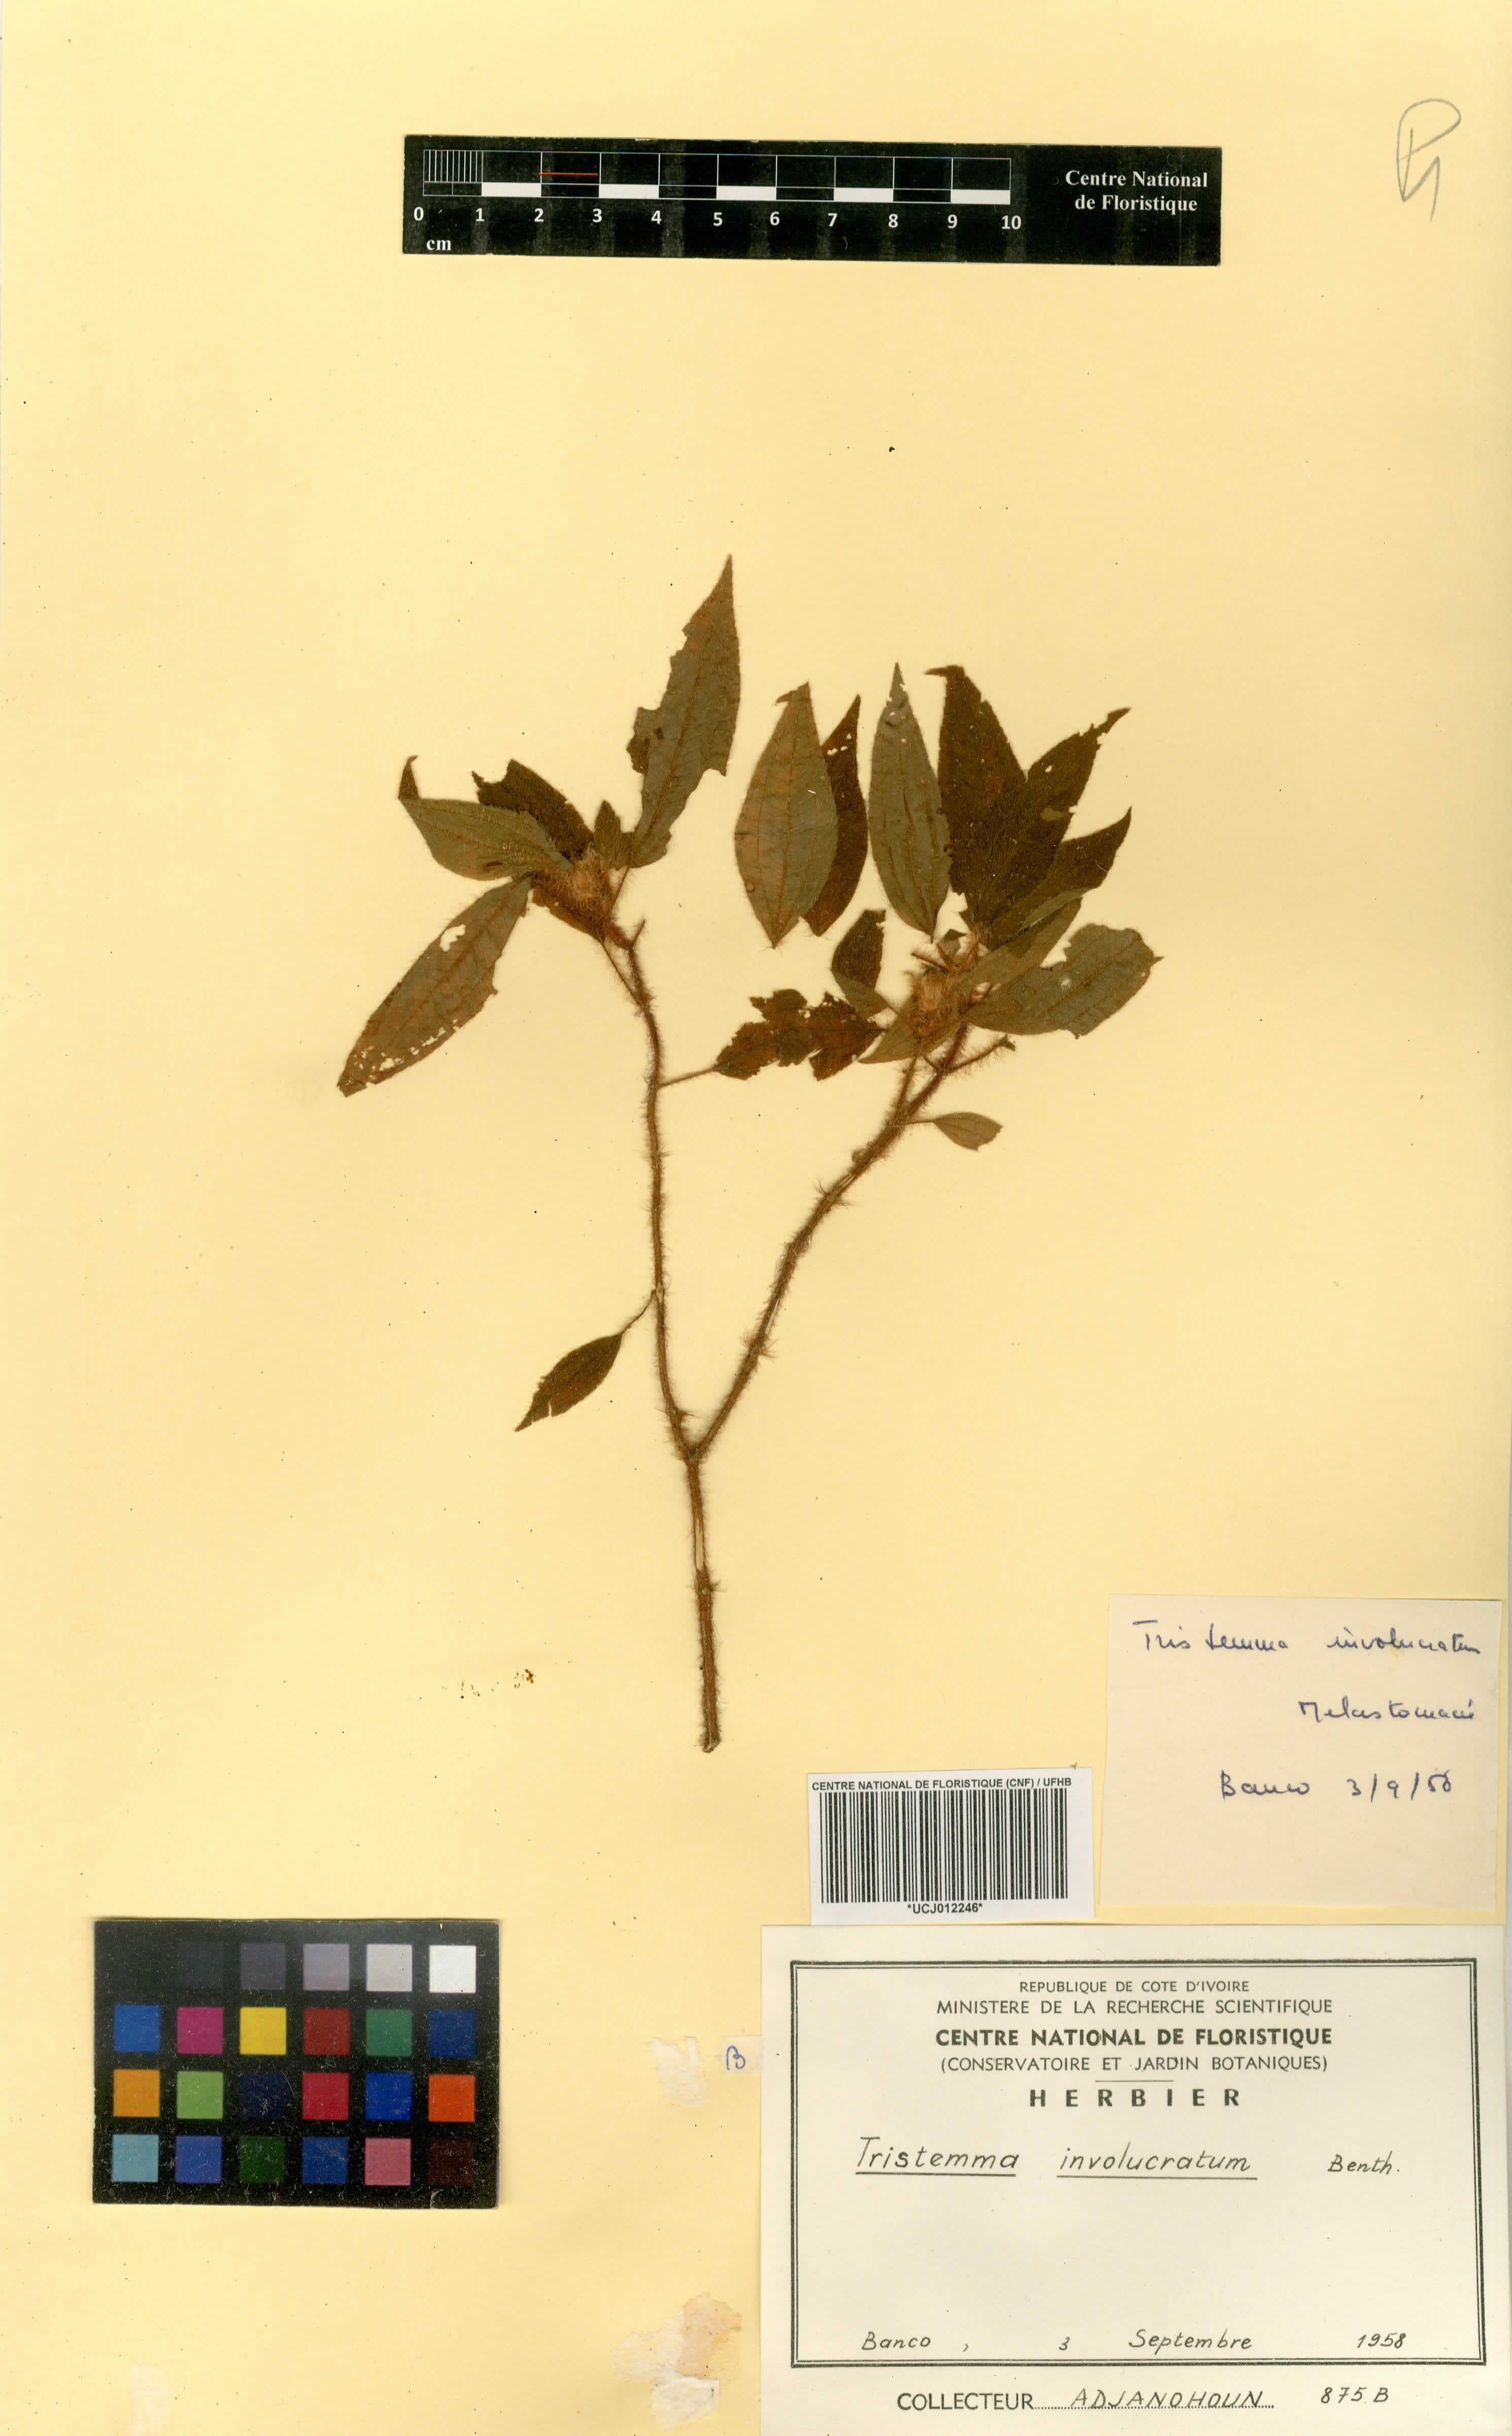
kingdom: Plantae
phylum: Tracheophyta
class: Magnoliopsida
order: Myrtales
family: Melastomataceae
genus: Tristemma
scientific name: Tristemma involucratum
